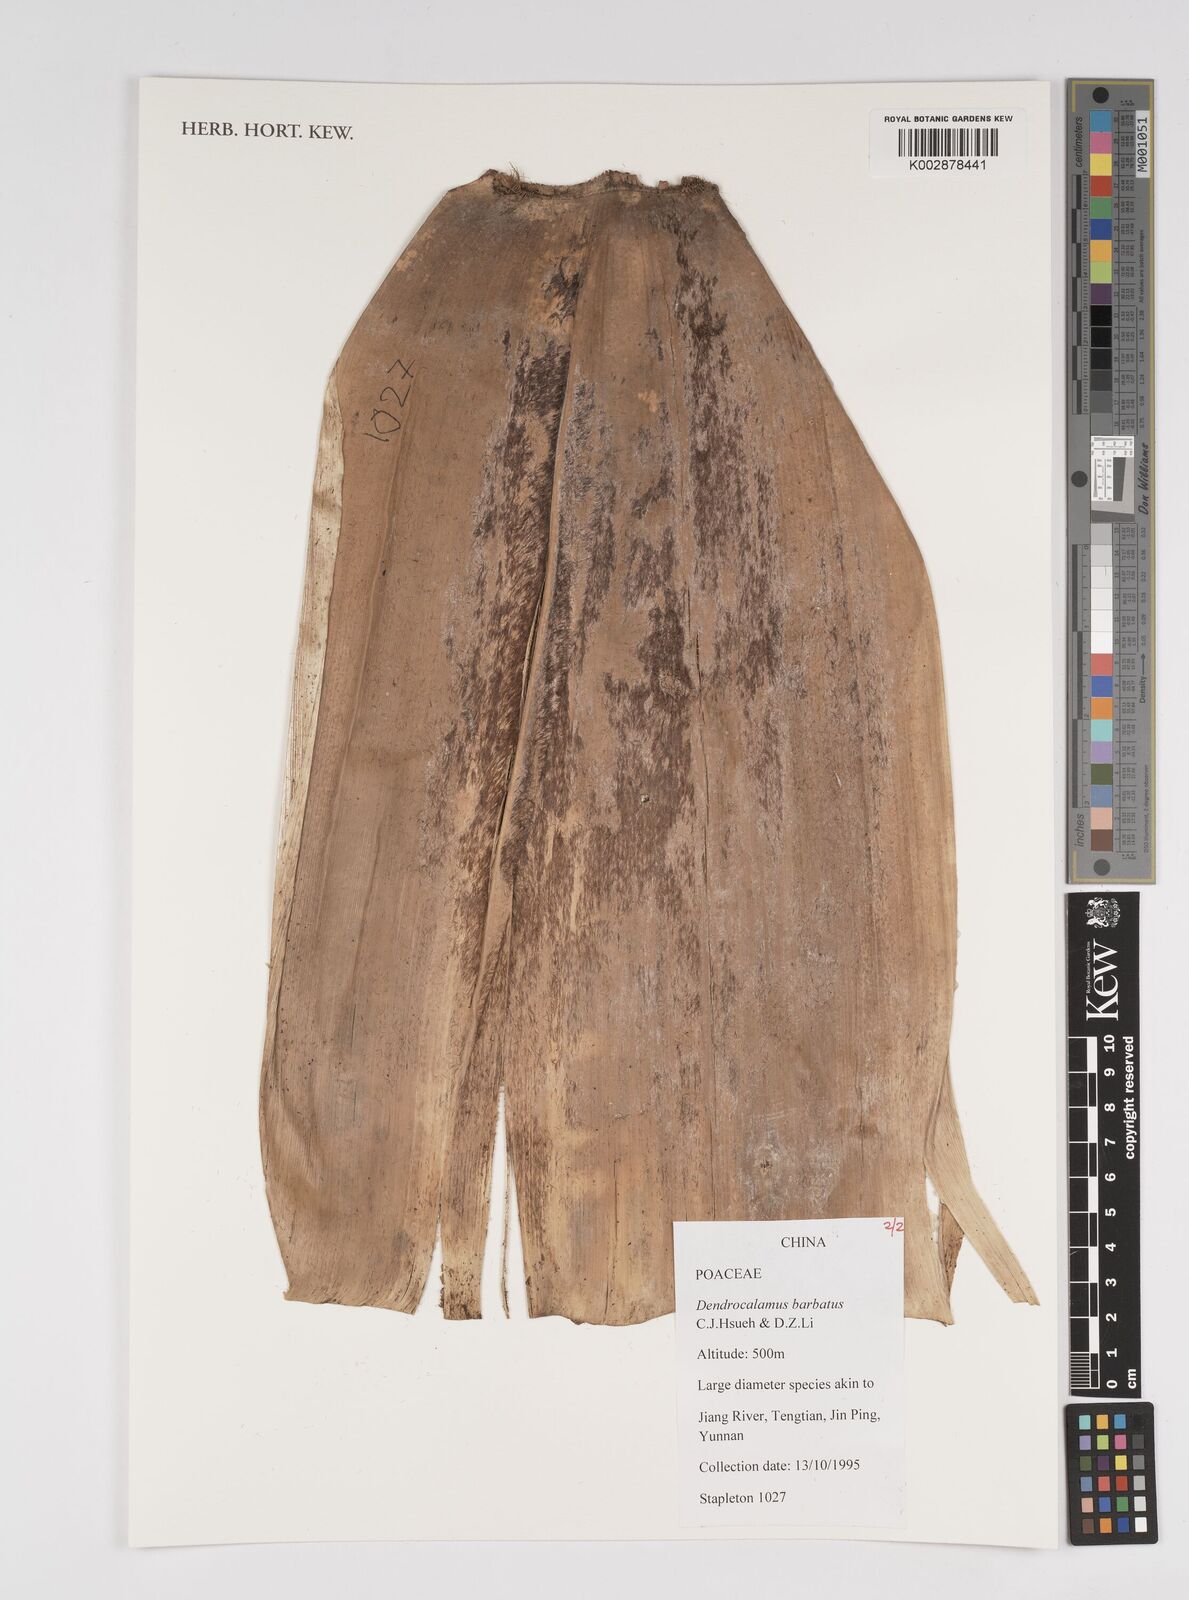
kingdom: Plantae
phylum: Tracheophyta
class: Liliopsida
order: Poales
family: Poaceae
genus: Dendrocalamus
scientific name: Dendrocalamus barbatus
